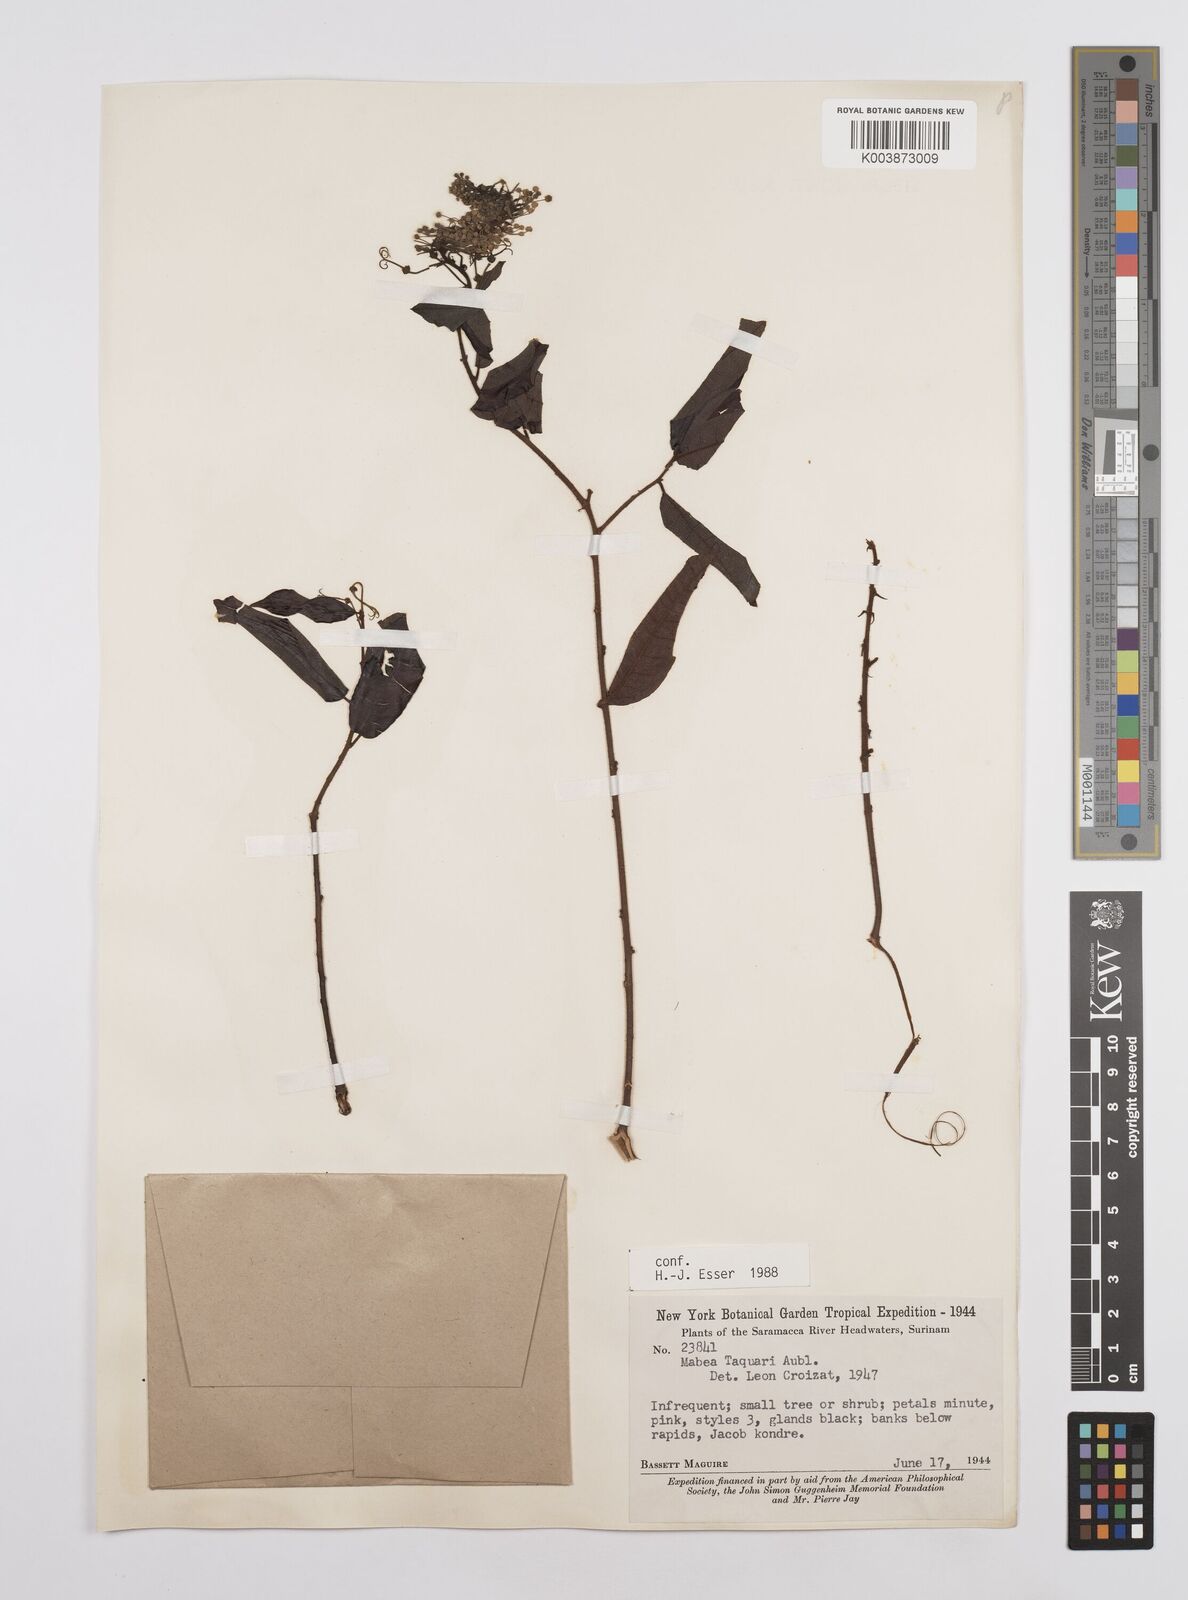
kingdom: Plantae
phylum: Tracheophyta
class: Magnoliopsida
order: Malpighiales
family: Euphorbiaceae
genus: Mabea
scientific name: Mabea taquari
